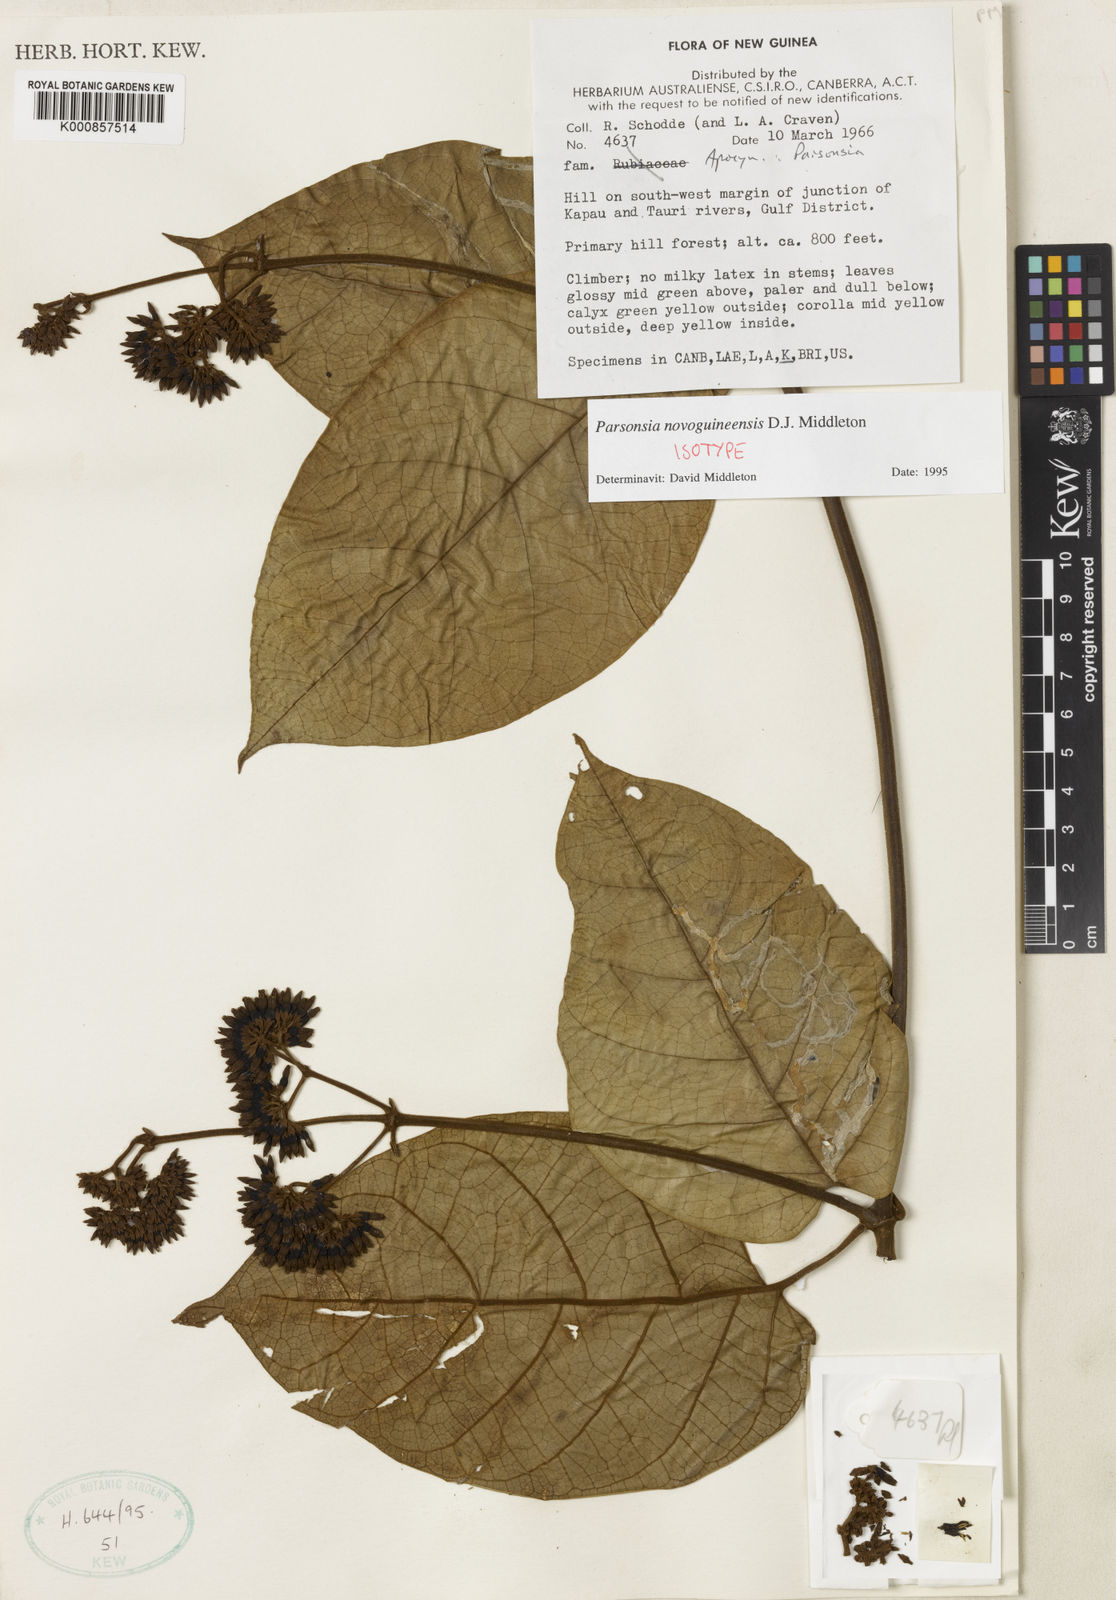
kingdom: Plantae
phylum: Tracheophyta
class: Magnoliopsida
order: Gentianales
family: Apocynaceae
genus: Parsonsia
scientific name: Parsonsia novoguineensis
